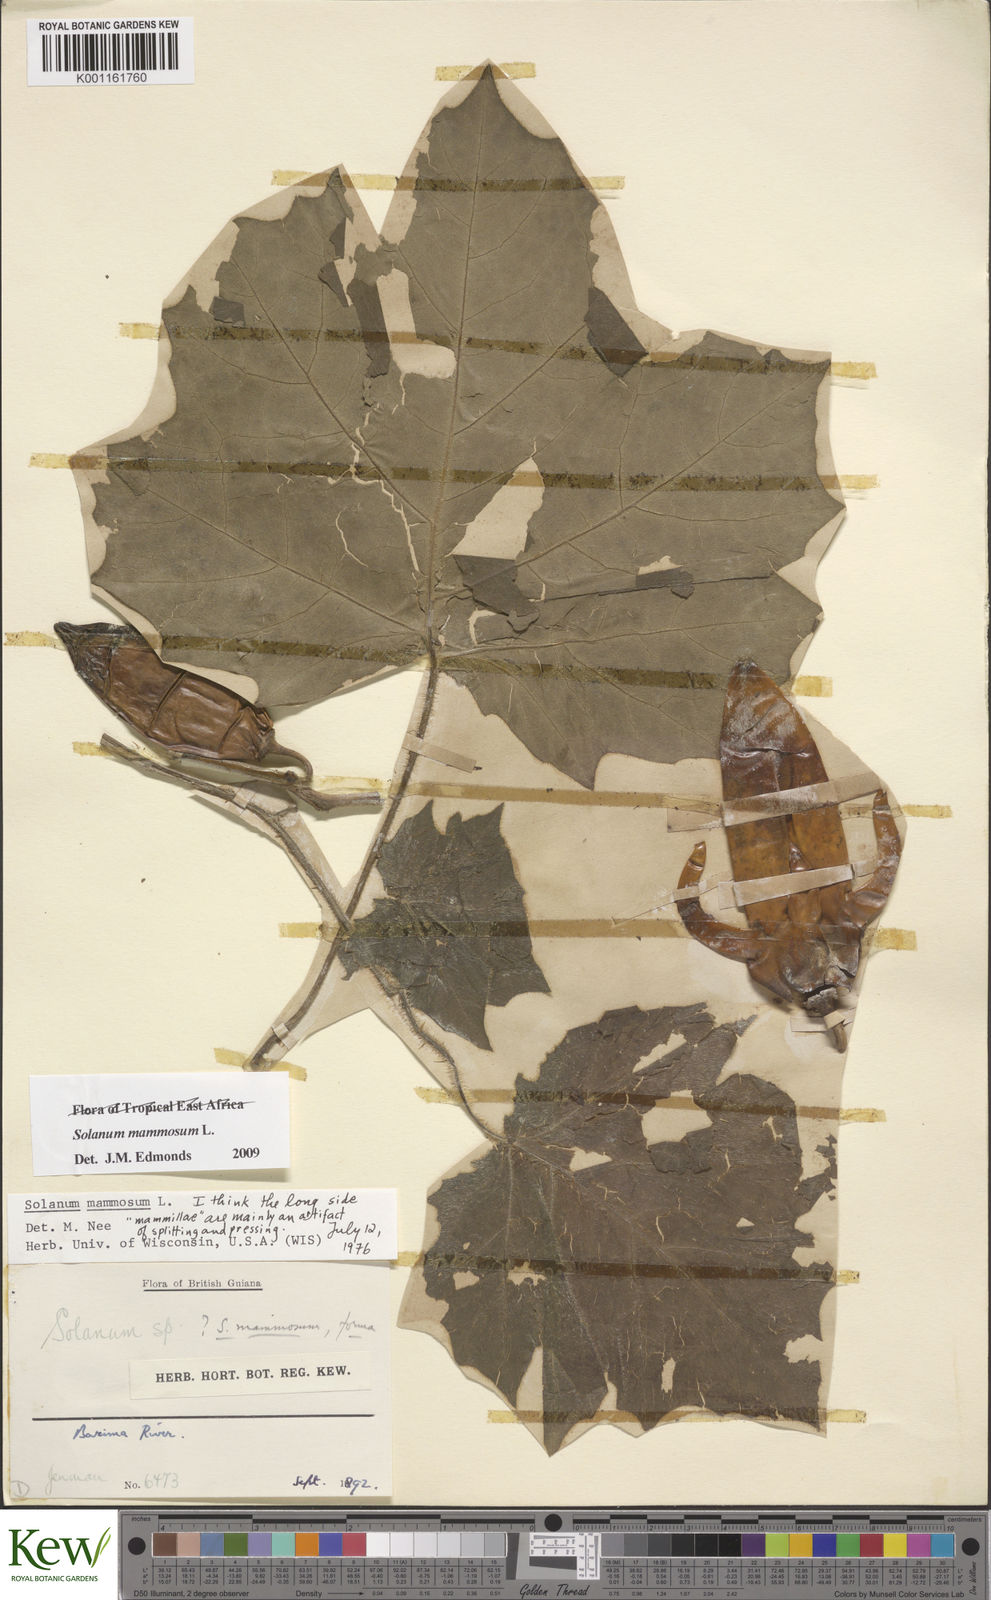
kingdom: Plantae
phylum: Tracheophyta
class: Magnoliopsida
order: Solanales
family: Solanaceae
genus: Solanum
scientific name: Solanum mammosum
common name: Nipple fruit
